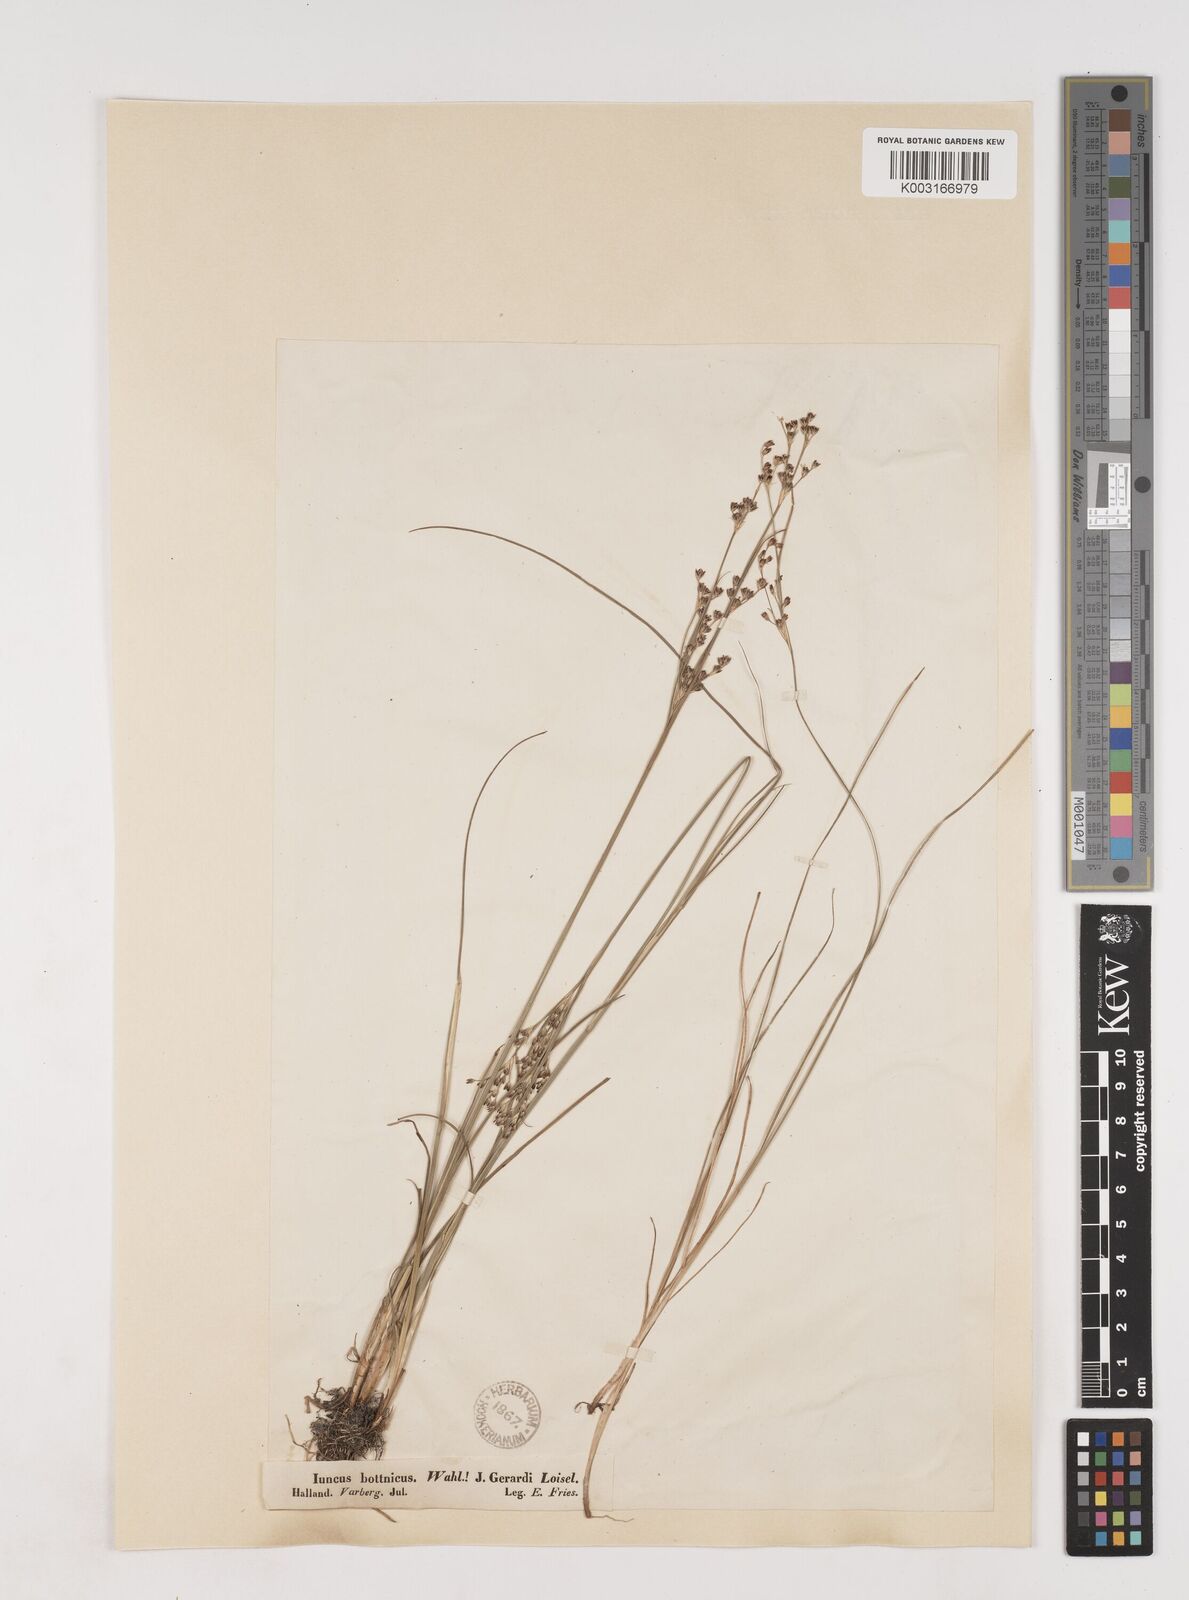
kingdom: Plantae
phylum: Tracheophyta
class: Liliopsida
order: Poales
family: Juncaceae
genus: Juncus
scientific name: Juncus gerardi
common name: Saltmarsh rush
